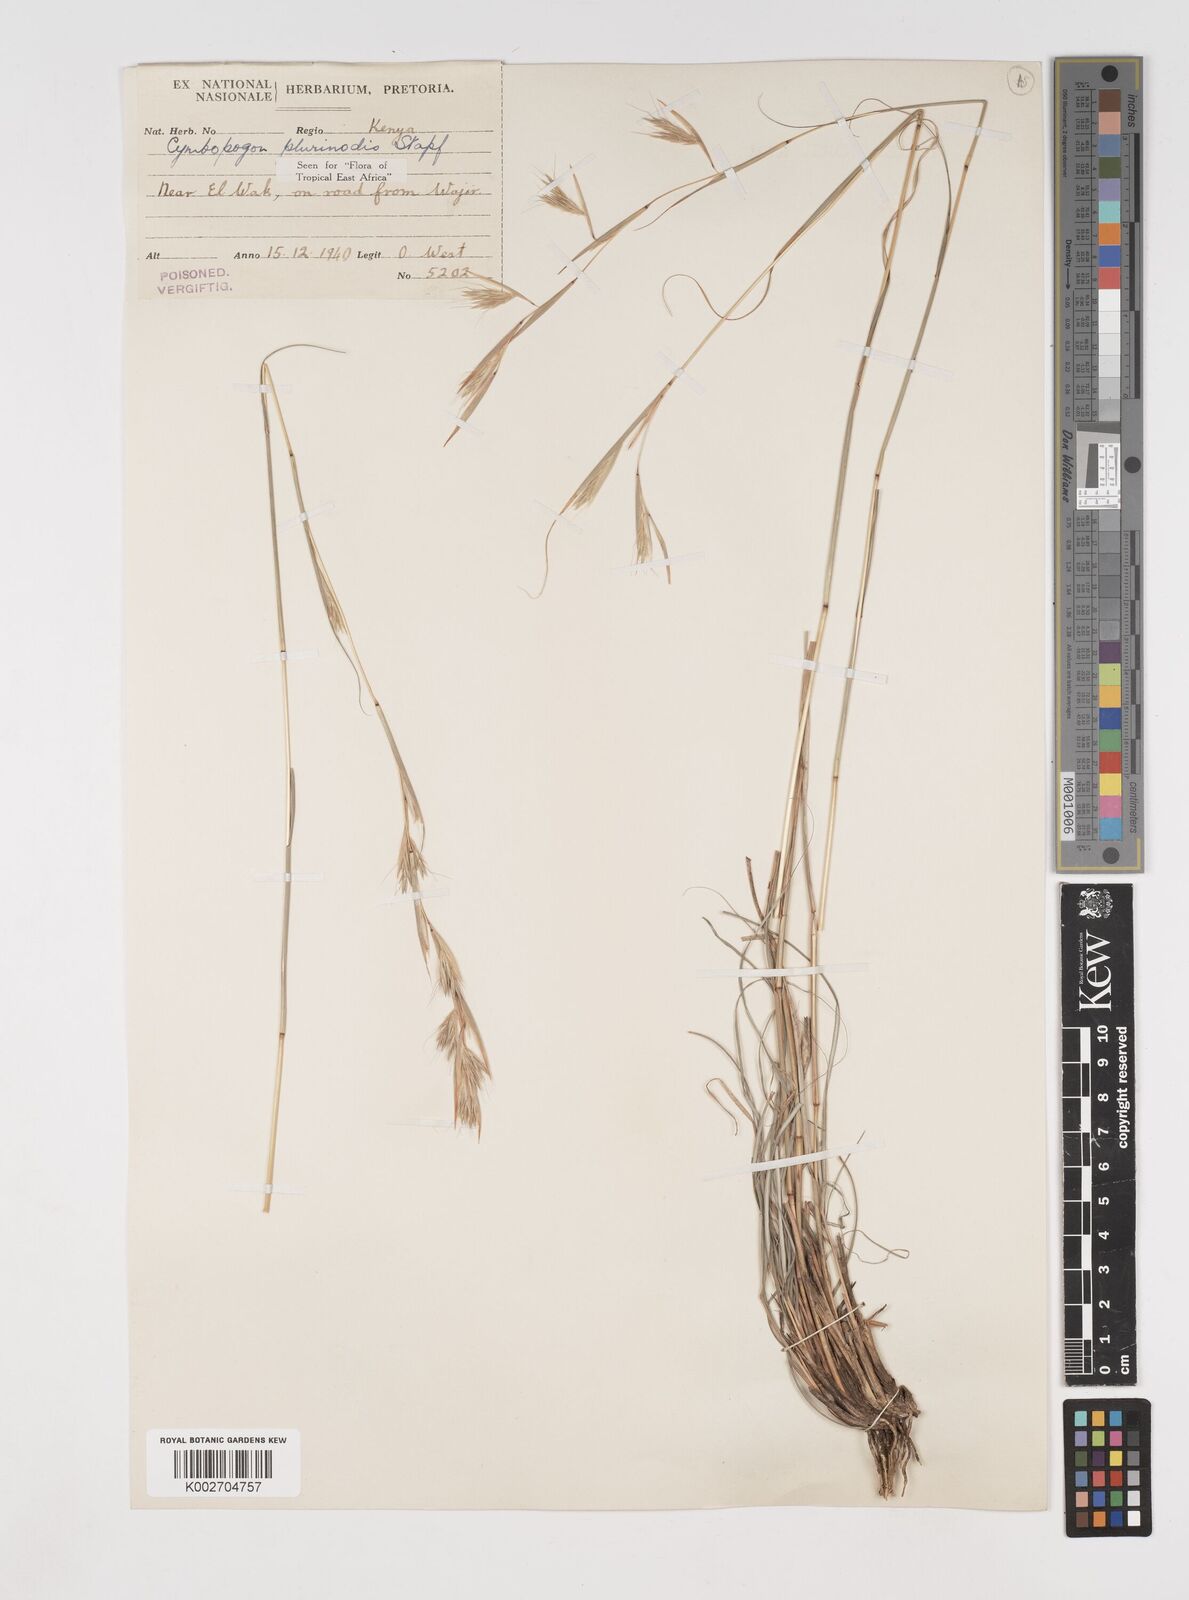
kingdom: Plantae
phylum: Tracheophyta
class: Liliopsida
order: Poales
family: Poaceae
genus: Cymbopogon
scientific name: Cymbopogon pospischilii
